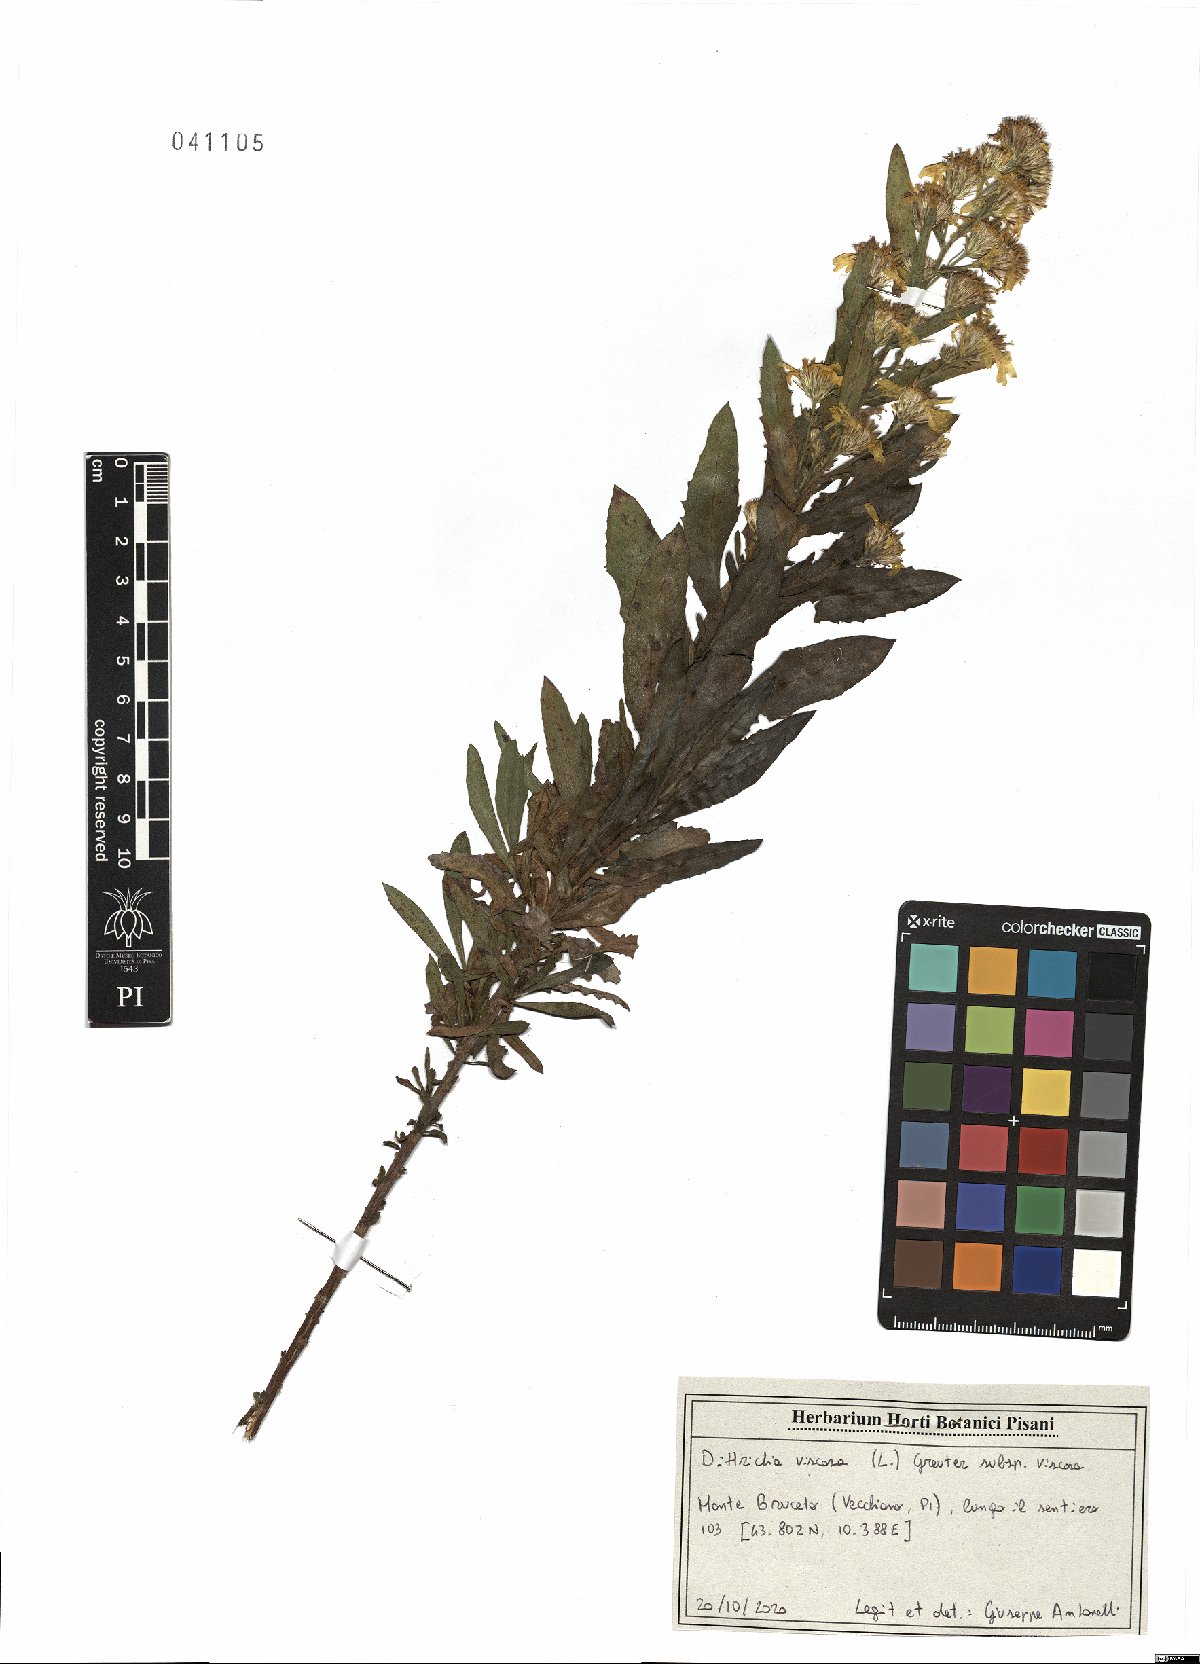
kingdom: Plantae
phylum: Tracheophyta
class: Magnoliopsida
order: Asterales
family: Asteraceae
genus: Dittrichia
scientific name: Dittrichia viscosa
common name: Woody fleabane
